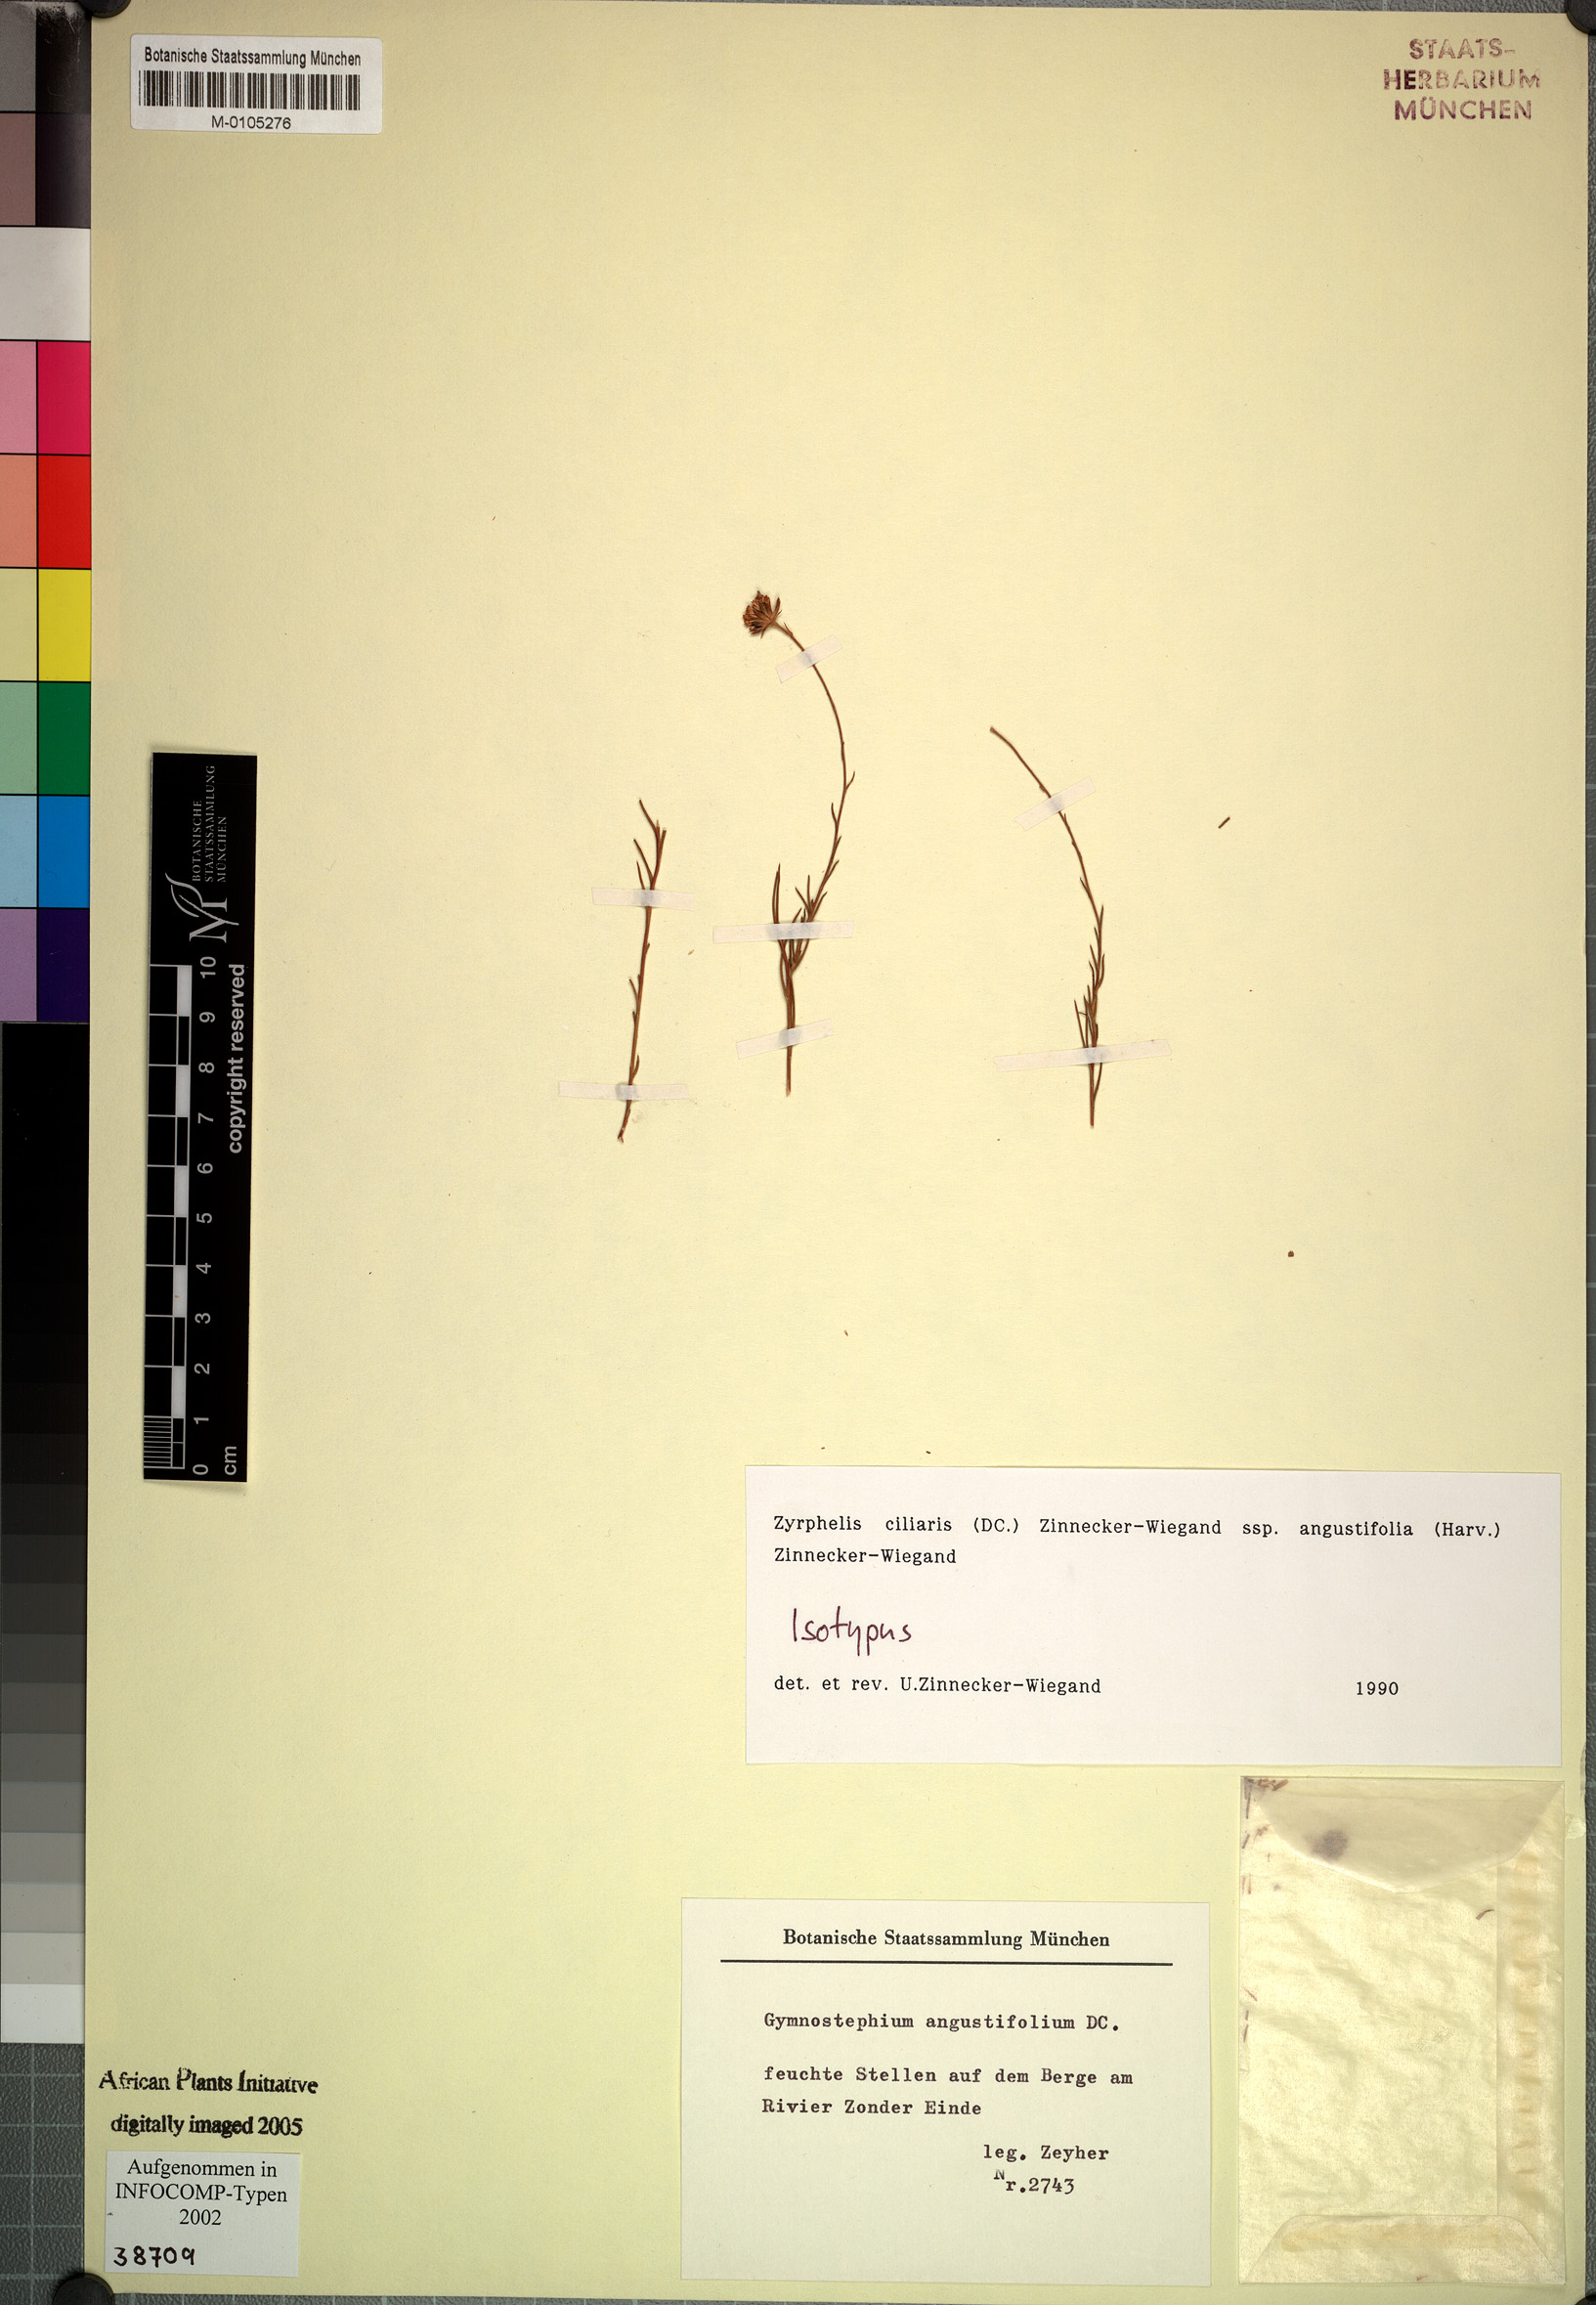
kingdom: Plantae
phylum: Tracheophyta
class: Magnoliopsida
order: Asterales
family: Asteraceae
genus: Zyrphelis
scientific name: Zyrphelis ciliaris
